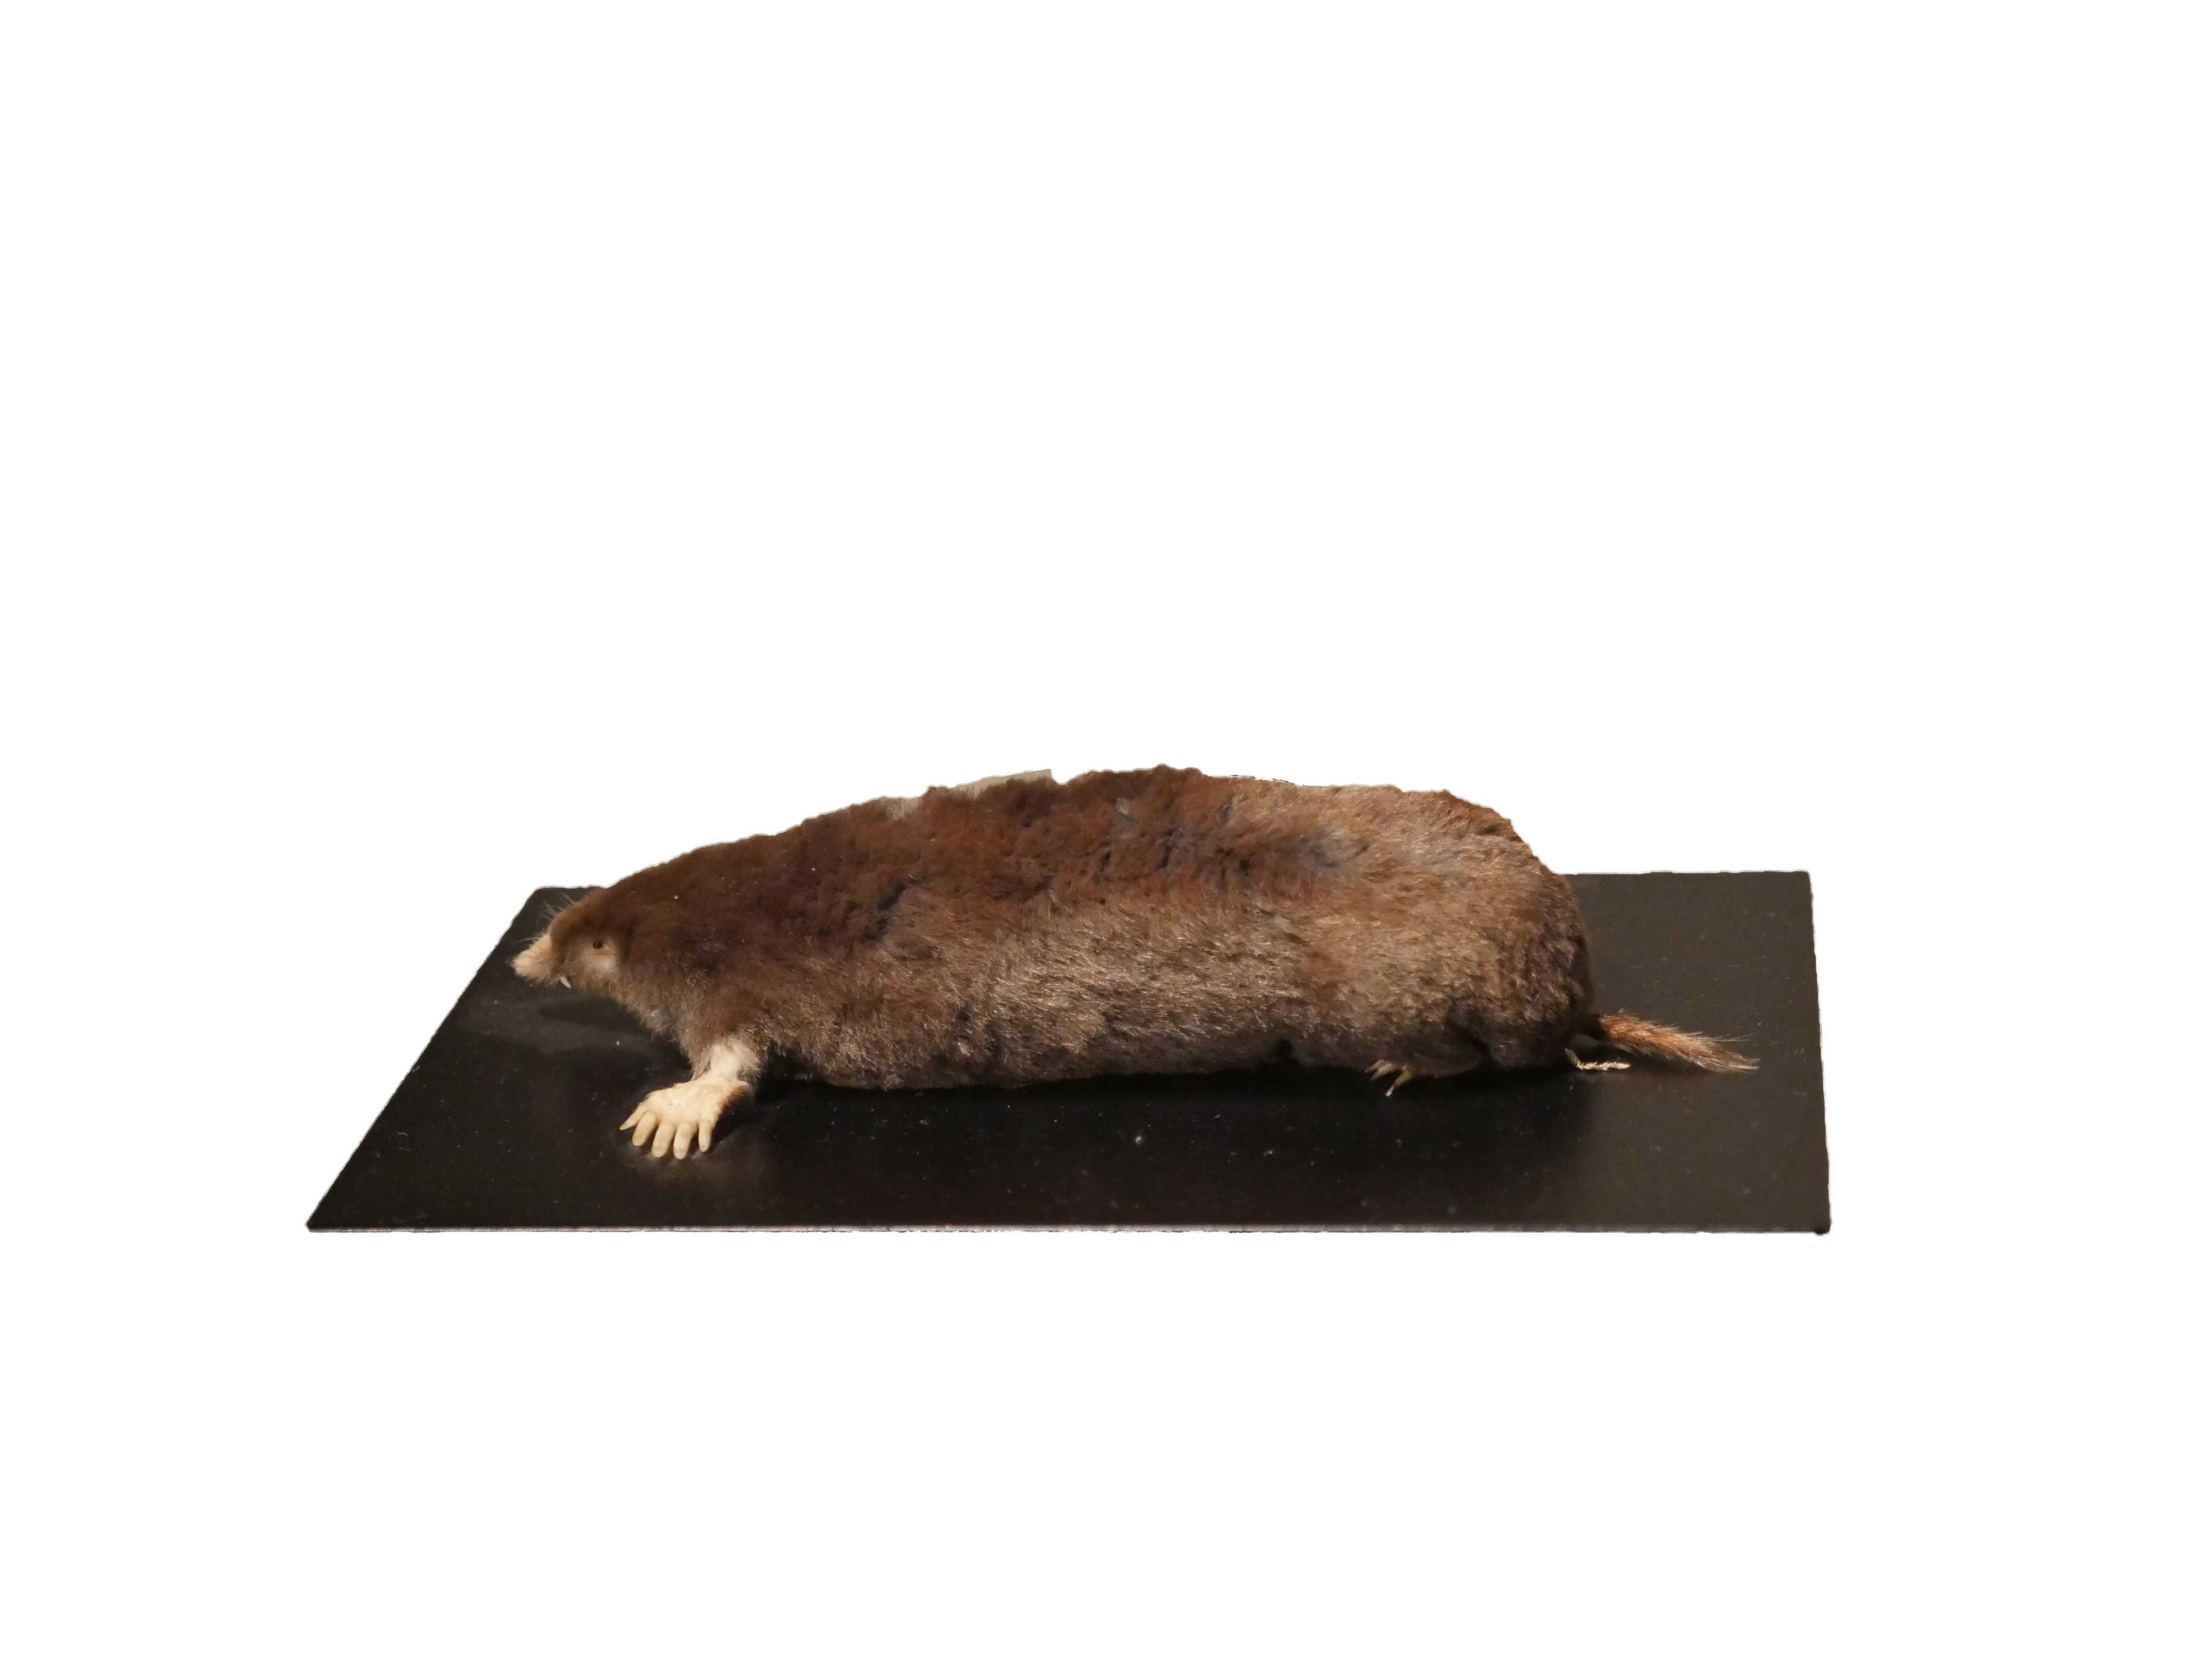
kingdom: Animalia
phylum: Chordata
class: Mammalia
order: Soricomorpha
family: Talpidae
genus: Talpa
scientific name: Talpa europaea
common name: European mole
